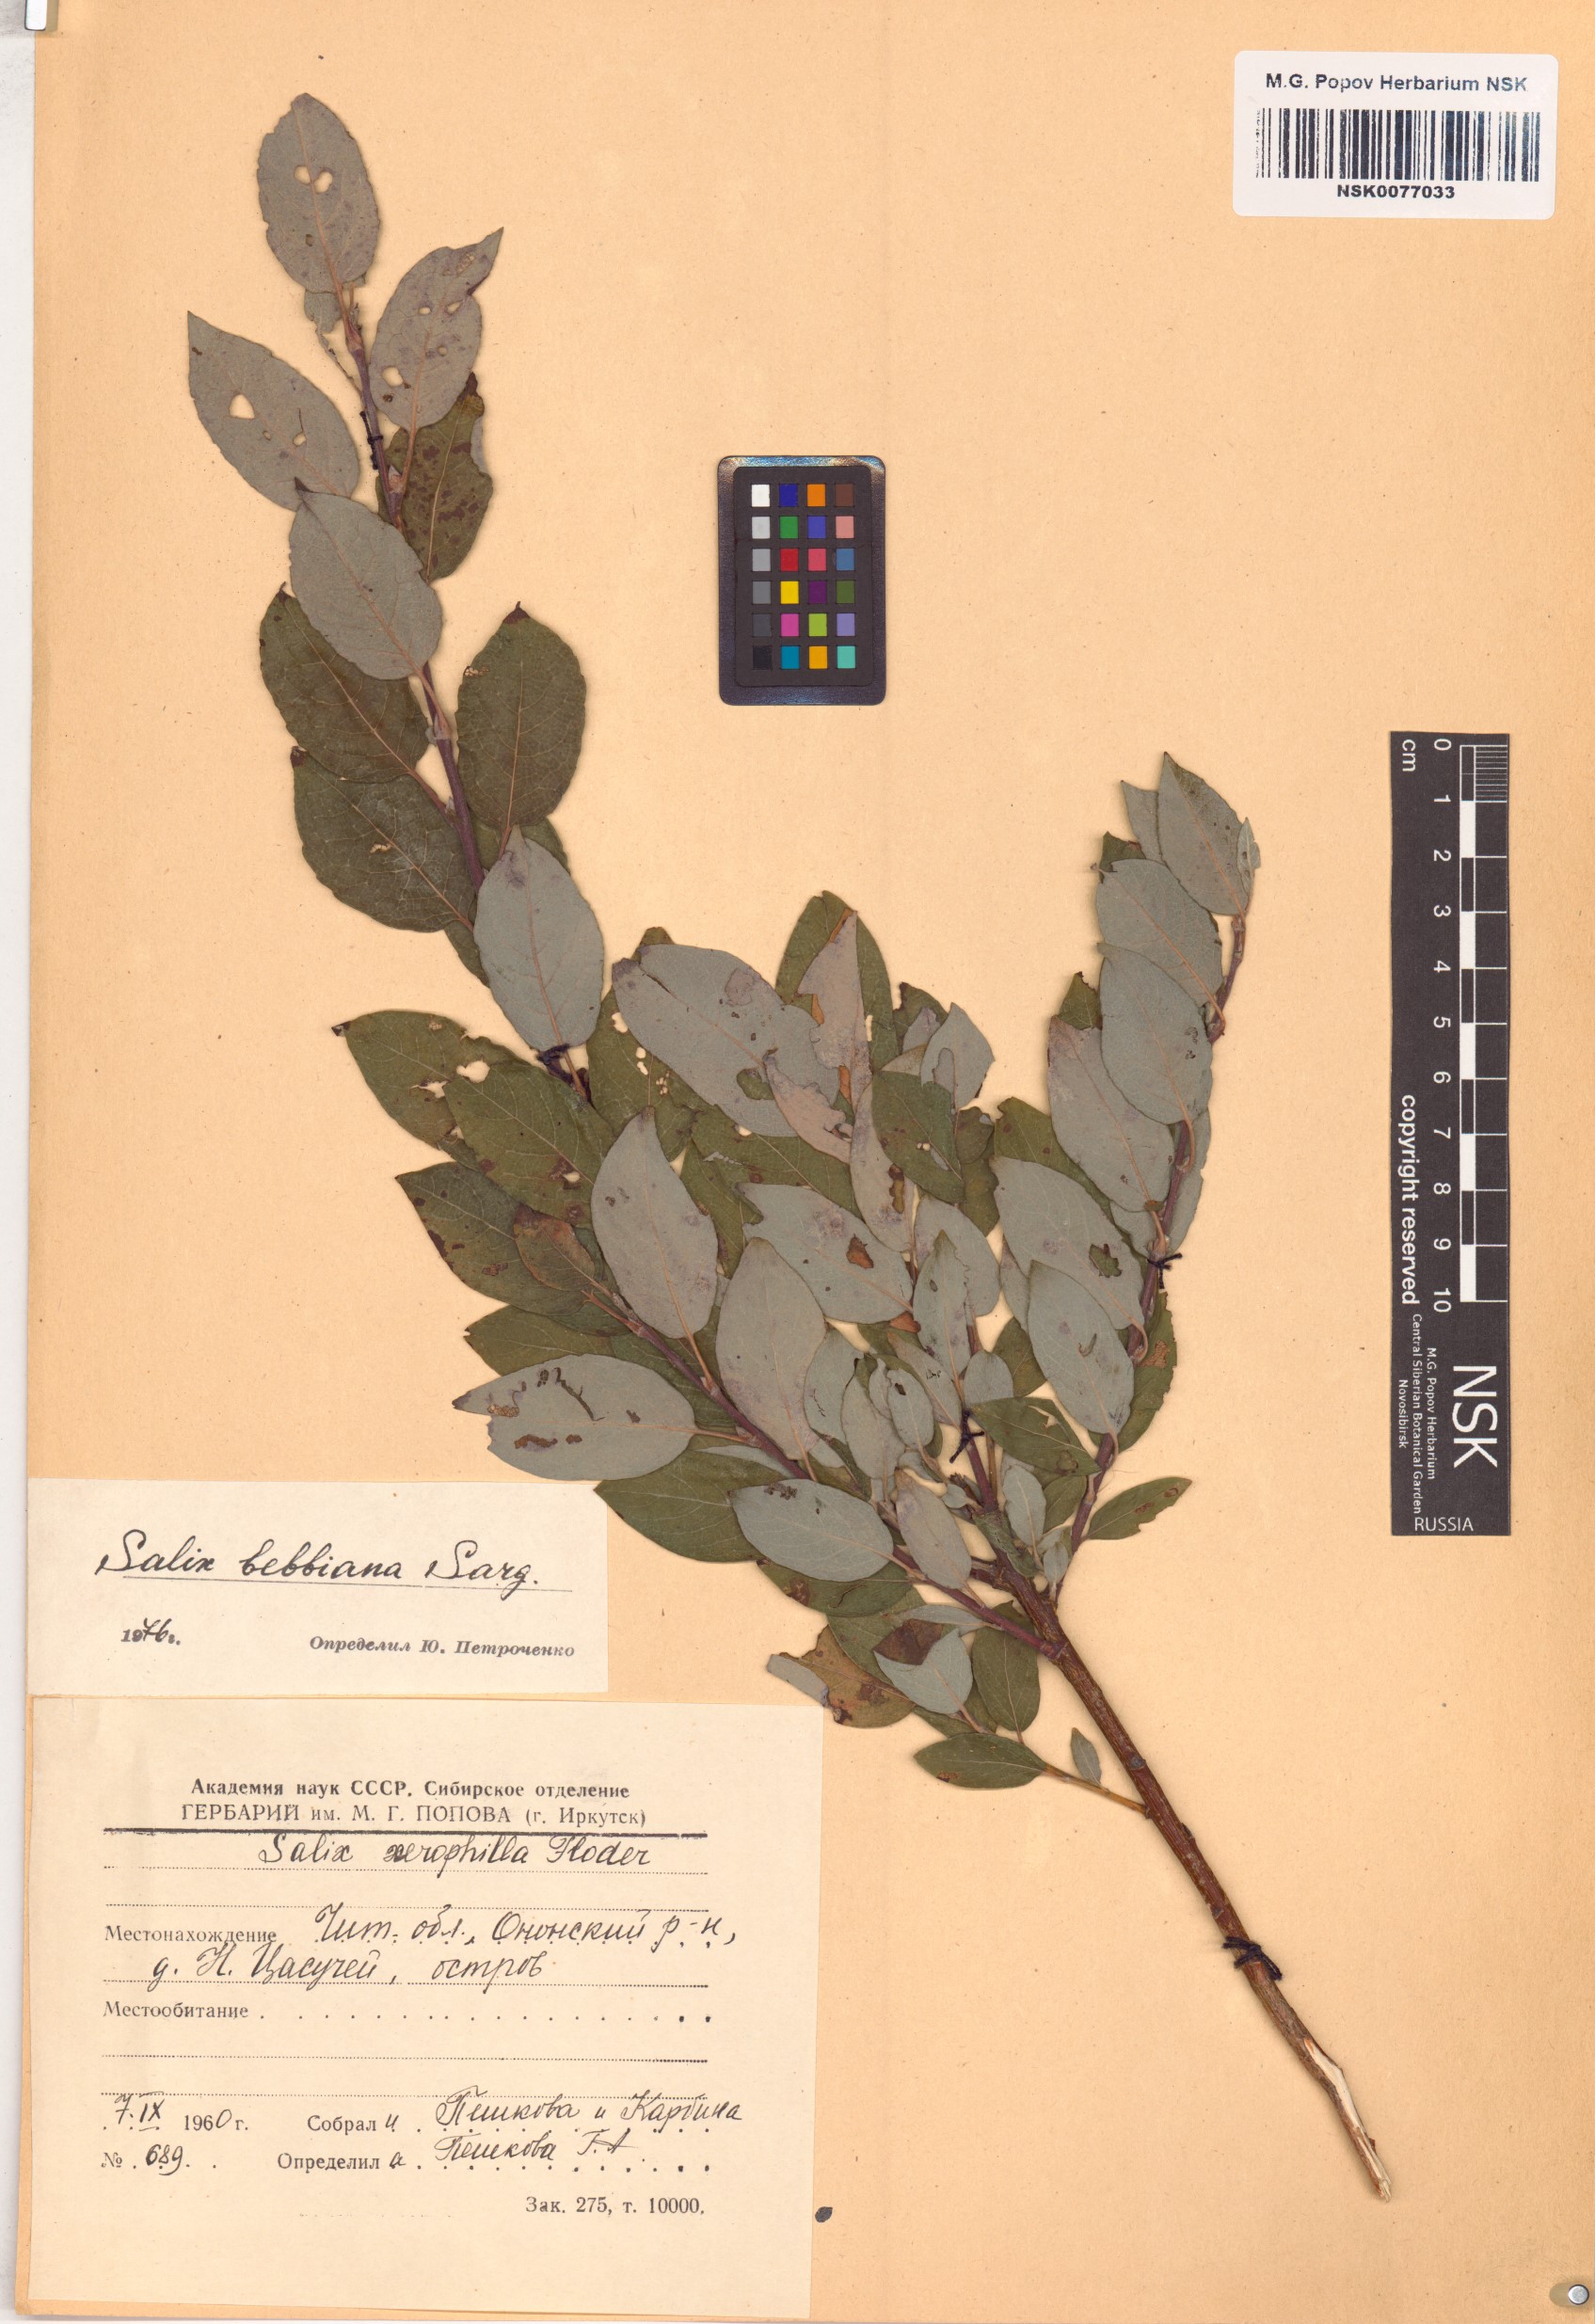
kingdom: Plantae
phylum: Tracheophyta
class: Magnoliopsida
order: Malpighiales
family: Salicaceae
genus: Salix
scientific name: Salix bebbiana
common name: Bebb's willow
